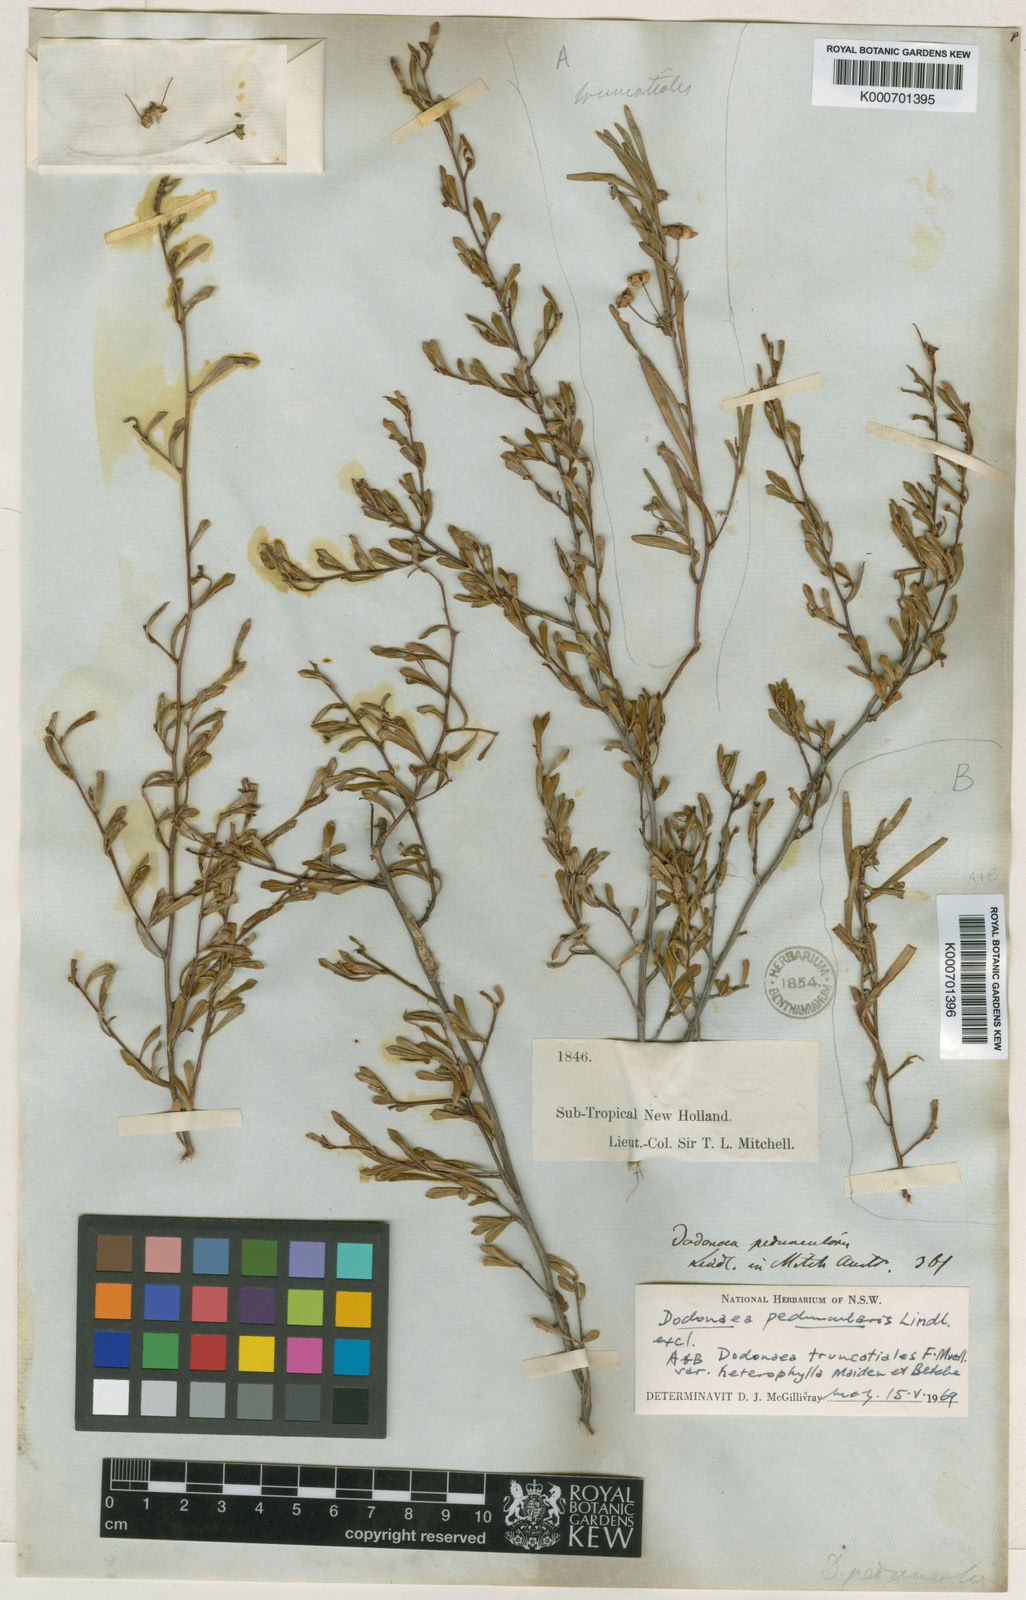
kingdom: Plantae
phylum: Tracheophyta
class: Magnoliopsida
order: Sapindales
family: Sapindaceae
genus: Dodonaea
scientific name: Dodonaea peduncularis
